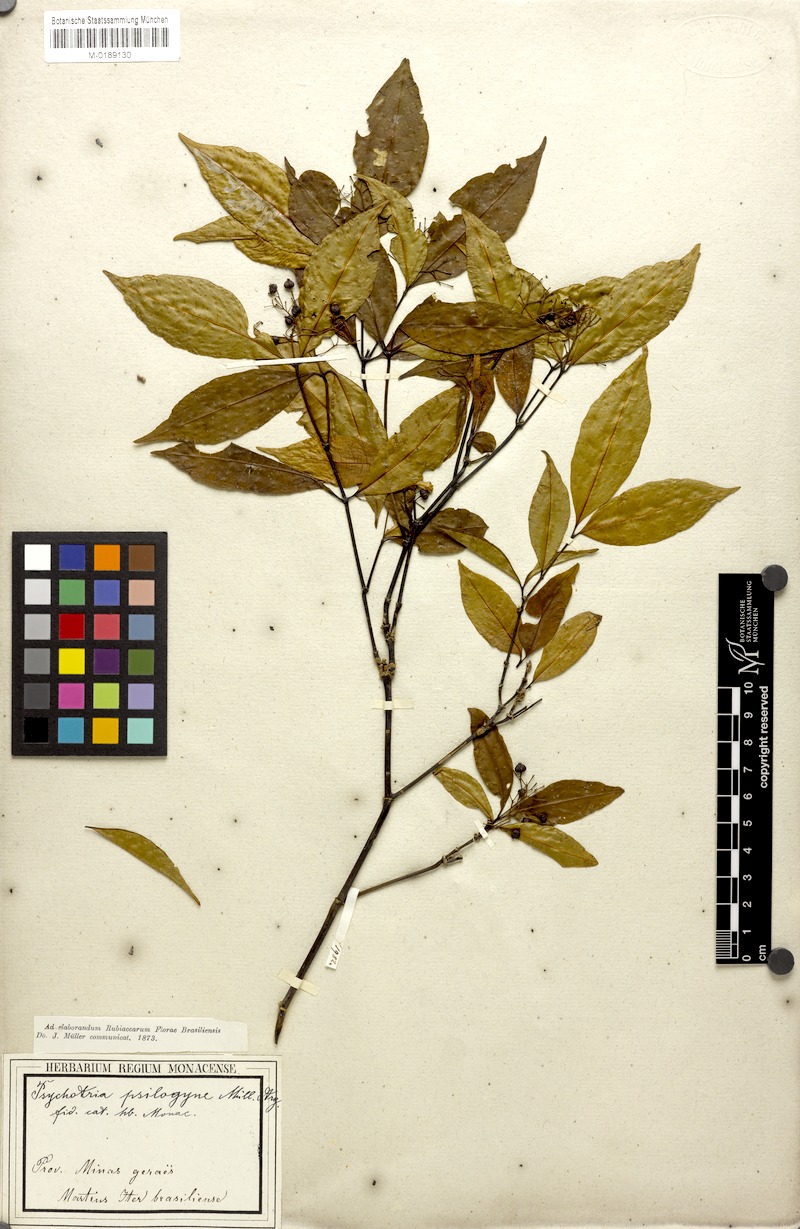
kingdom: Plantae
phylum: Tracheophyta
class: Magnoliopsida
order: Gentianales
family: Rubiaceae
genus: Psychotria
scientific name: Psychotria leiocarpa
